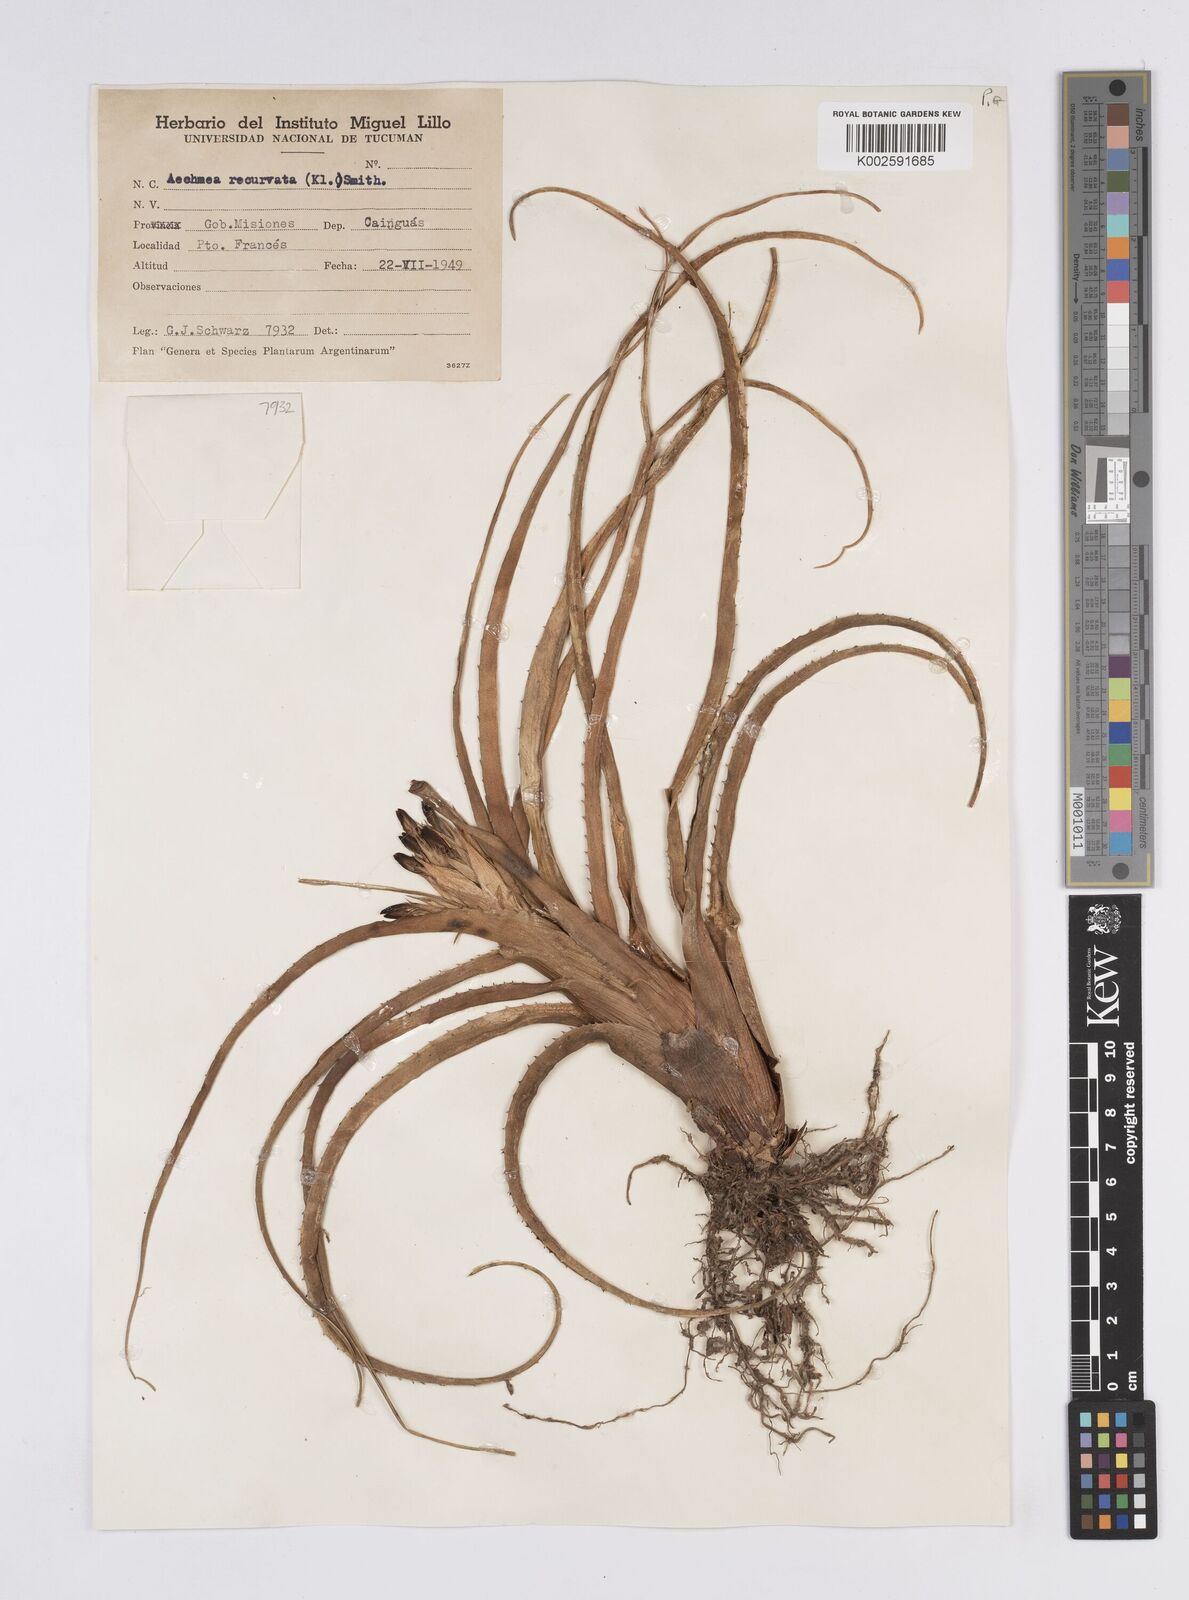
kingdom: Plantae
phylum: Tracheophyta
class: Liliopsida
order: Poales
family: Bromeliaceae
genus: Aechmea
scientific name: Aechmea recurvata
